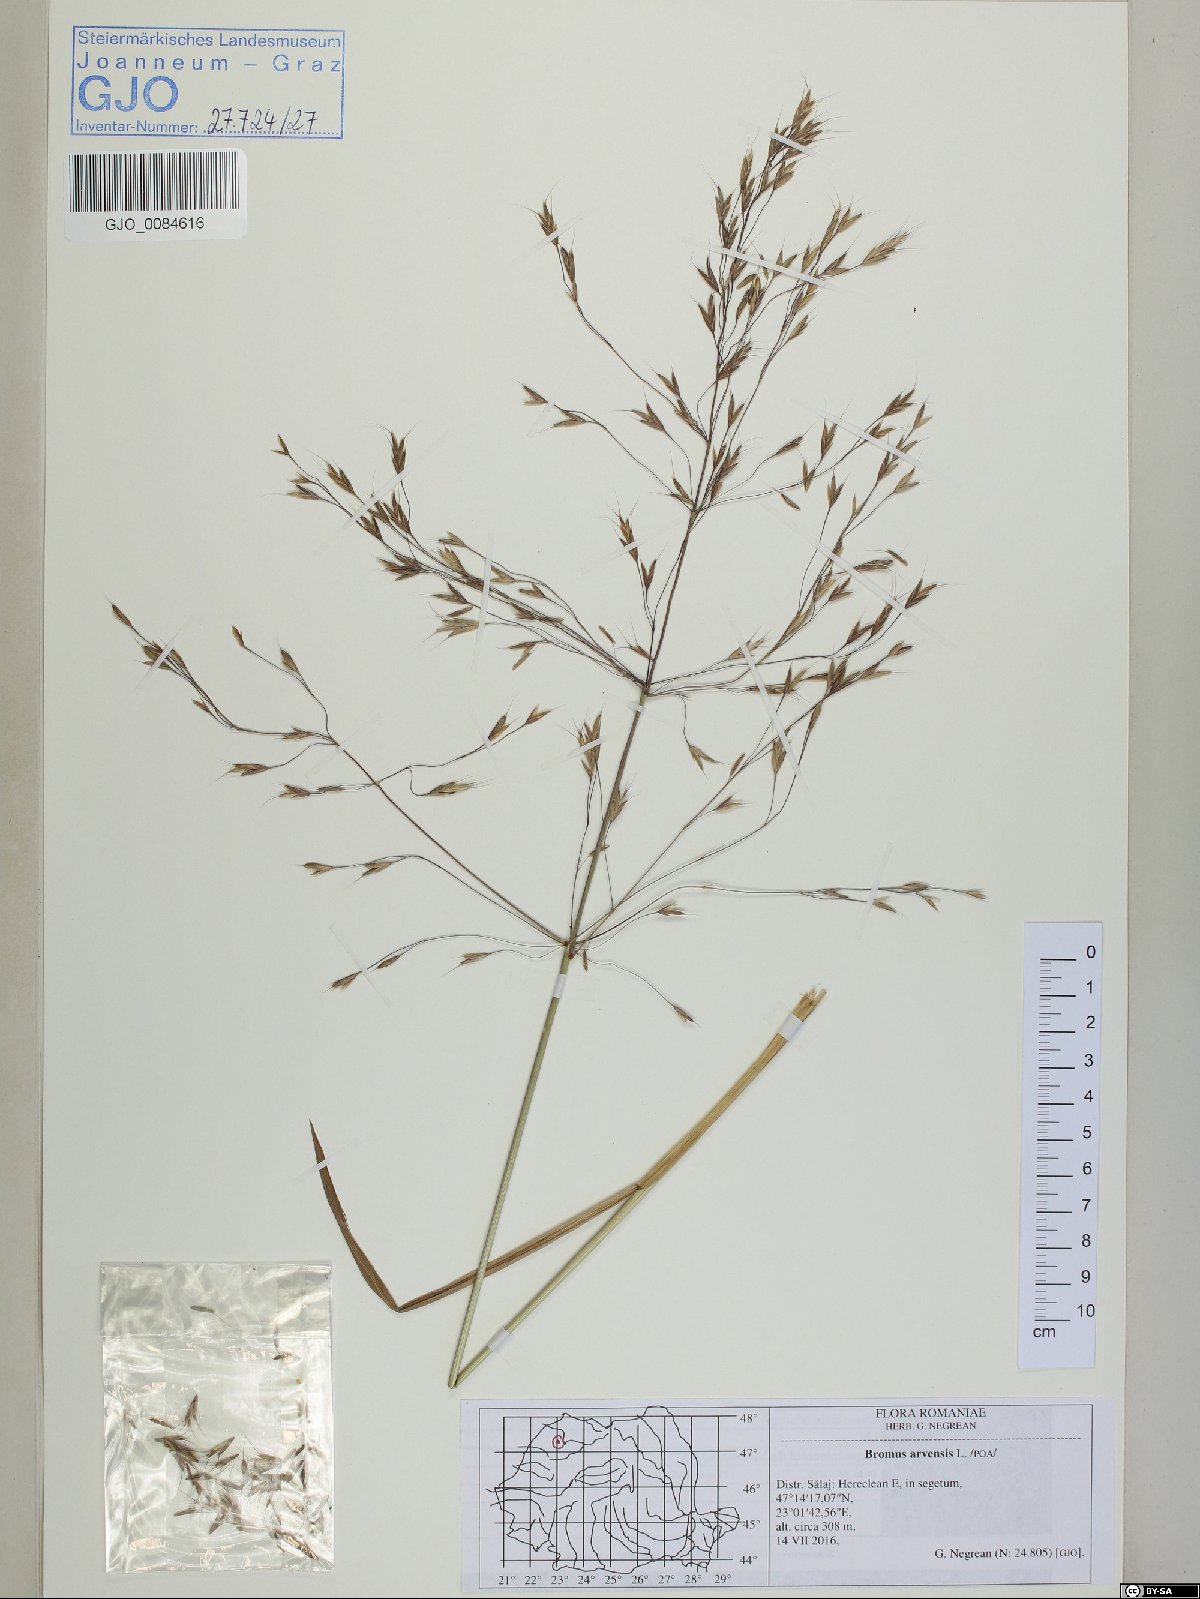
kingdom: Plantae
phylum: Tracheophyta
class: Liliopsida
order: Poales
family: Poaceae
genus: Bromus
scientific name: Bromus arvensis
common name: Field brome
